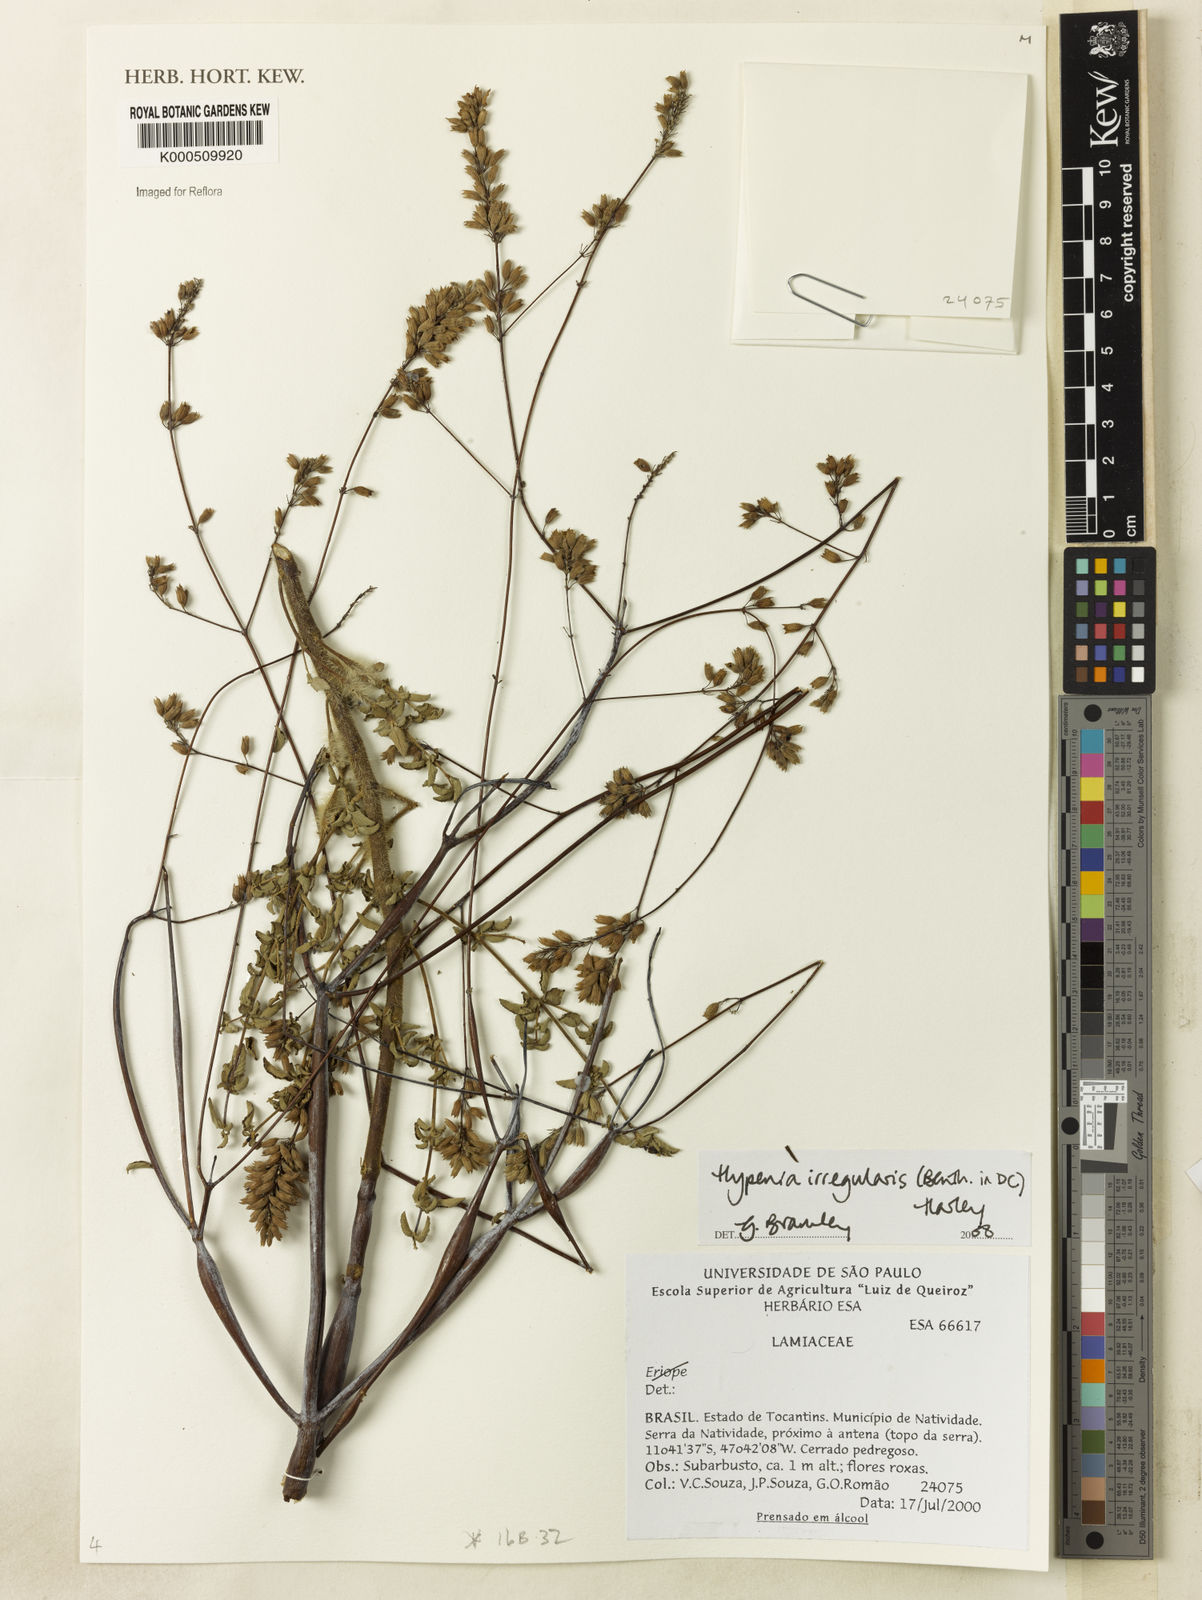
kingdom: Plantae
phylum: Tracheophyta
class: Magnoliopsida
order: Lamiales
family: Lamiaceae
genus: Hypenia
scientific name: Hypenia irregularis
